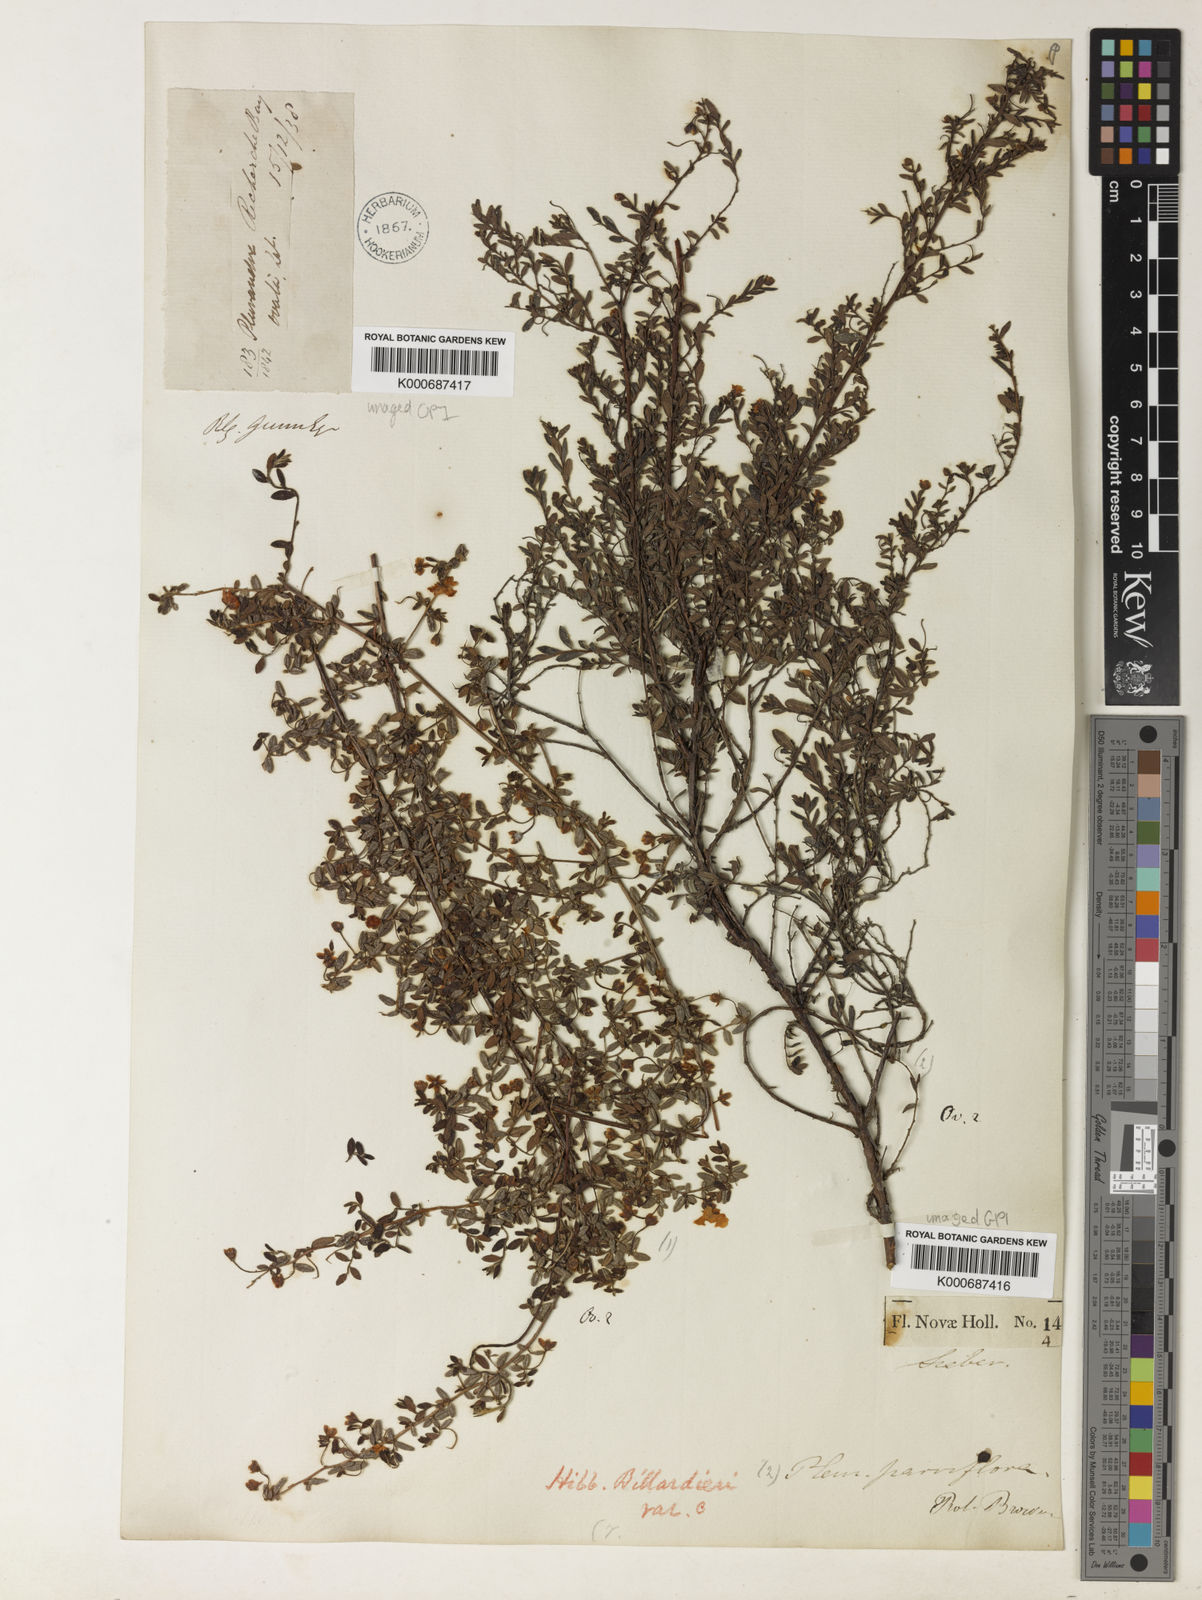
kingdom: Plantae
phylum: Tracheophyta
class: Magnoliopsida
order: Dilleniales
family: Dilleniaceae
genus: Hibbertia
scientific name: Hibbertia aspera
